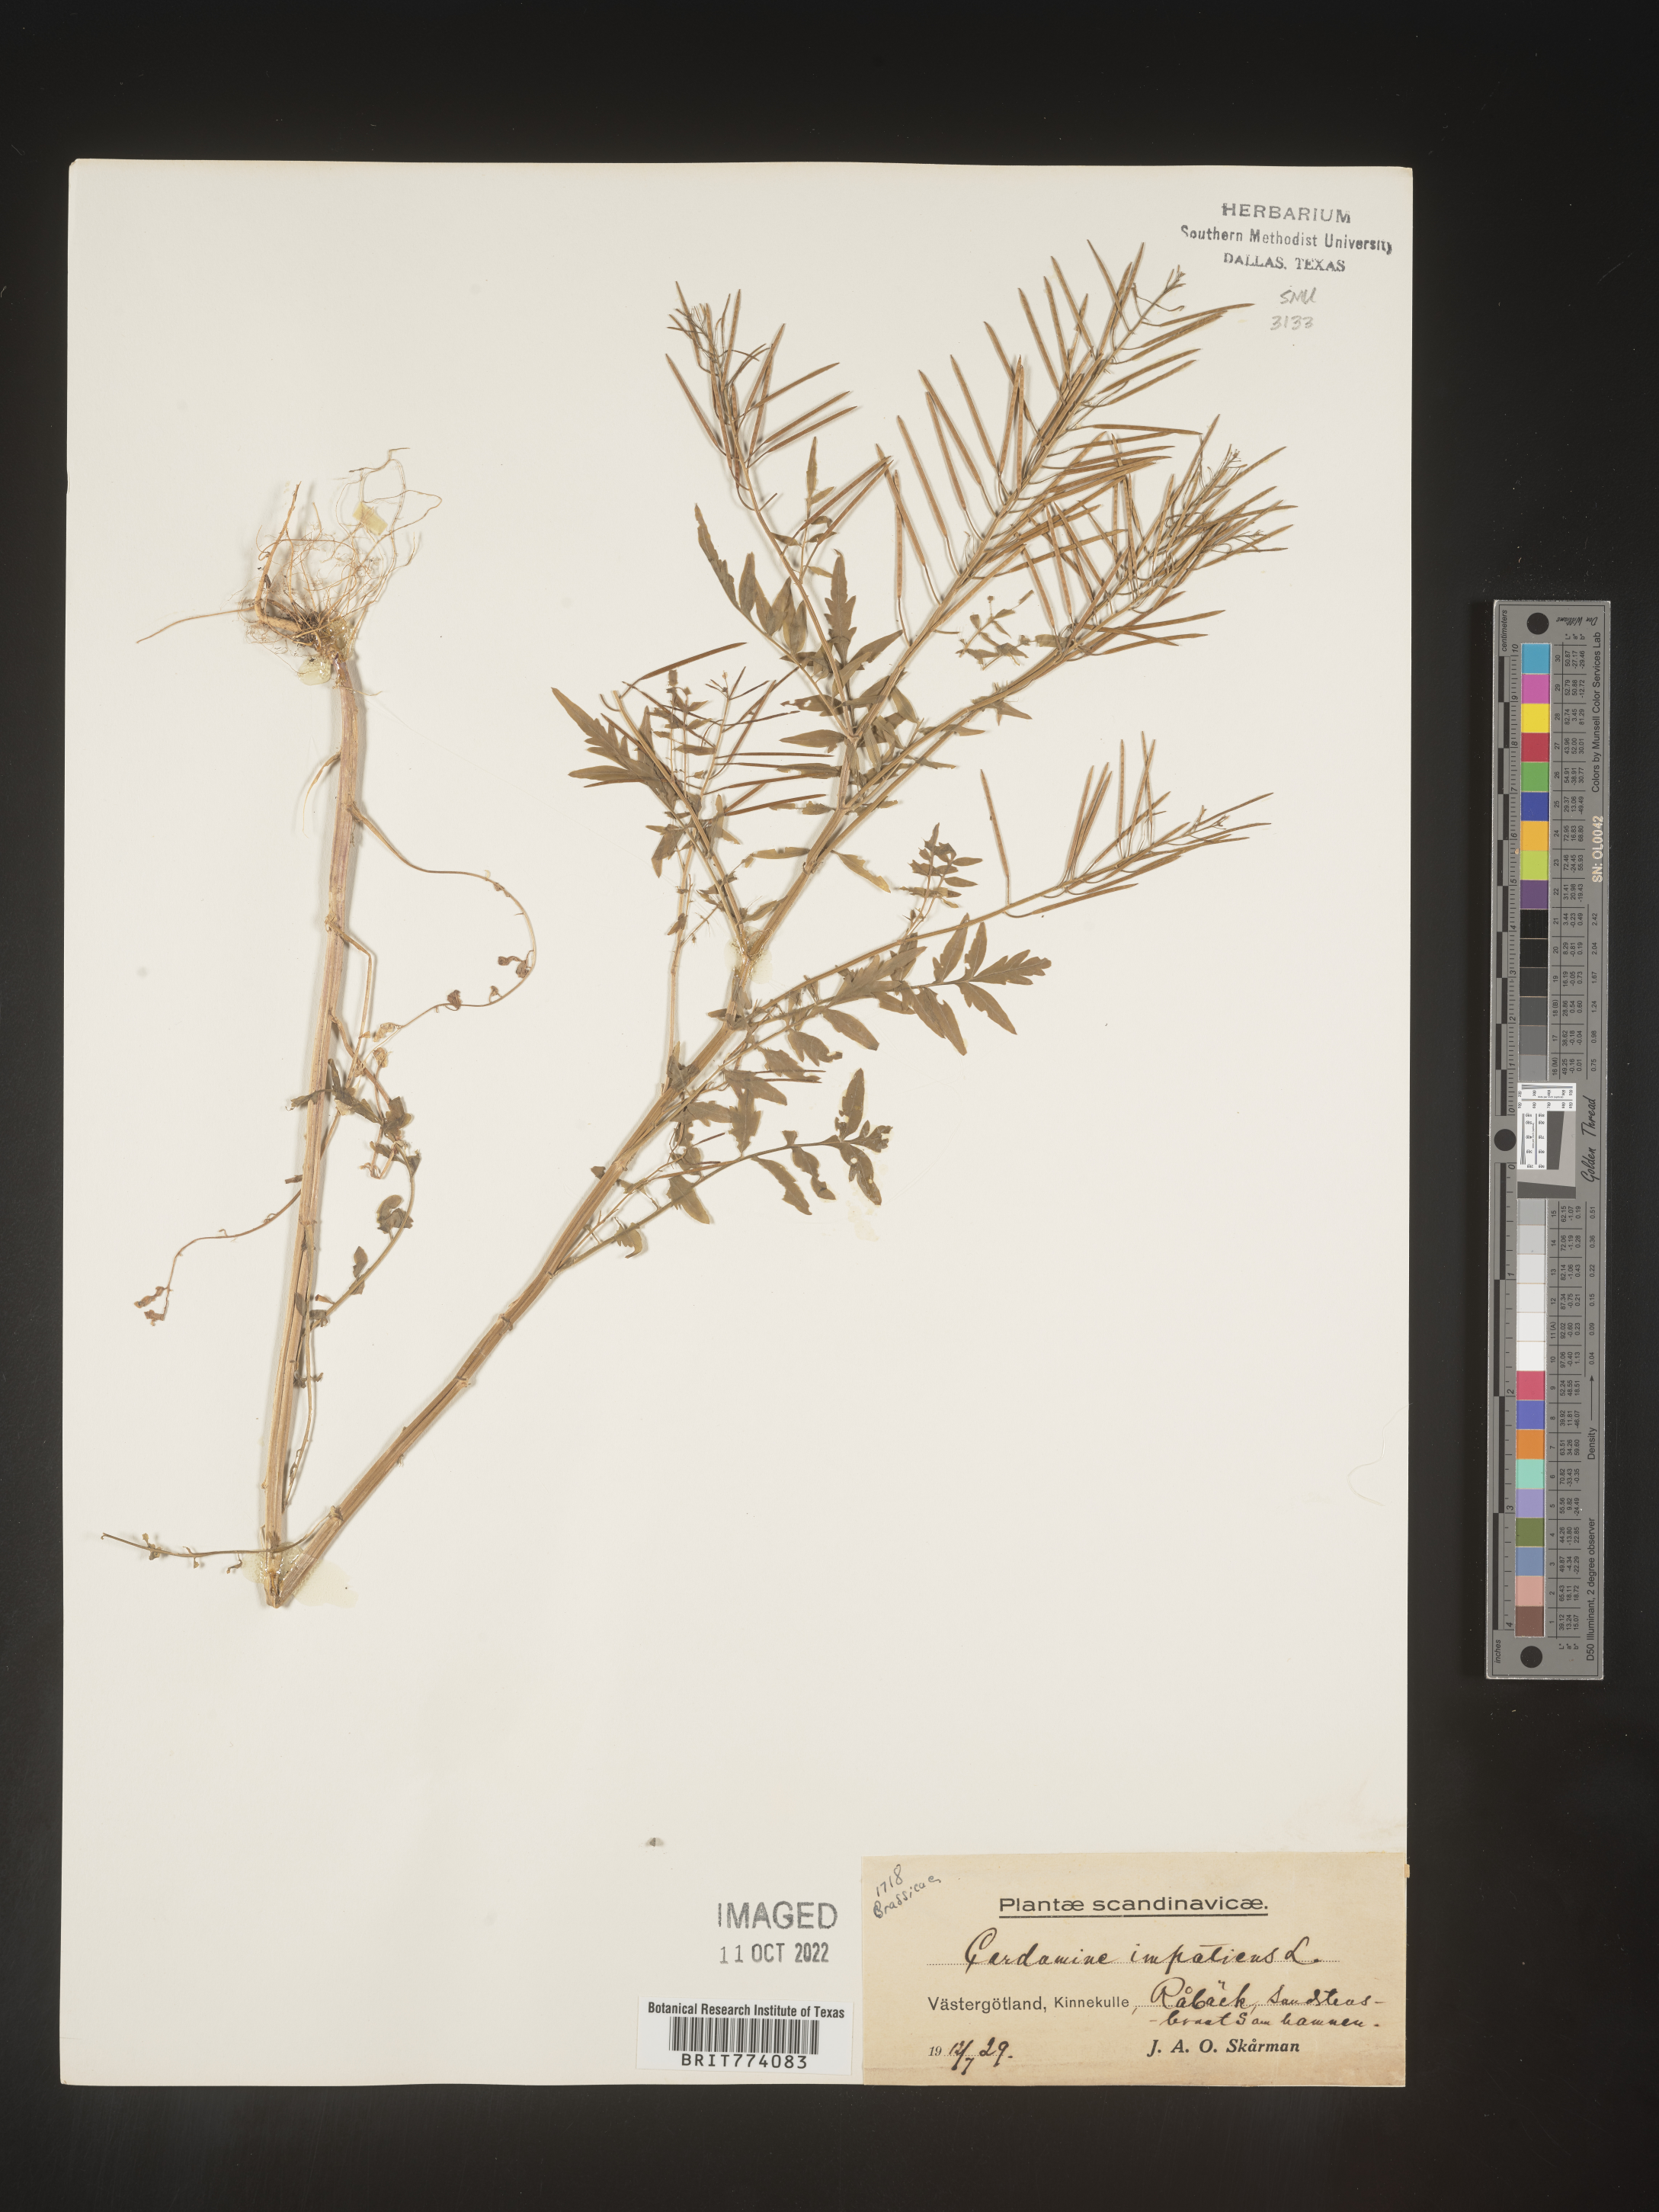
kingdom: Plantae
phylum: Tracheophyta
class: Magnoliopsida
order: Brassicales
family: Brassicaceae
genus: Cardamine
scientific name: Cardamine
